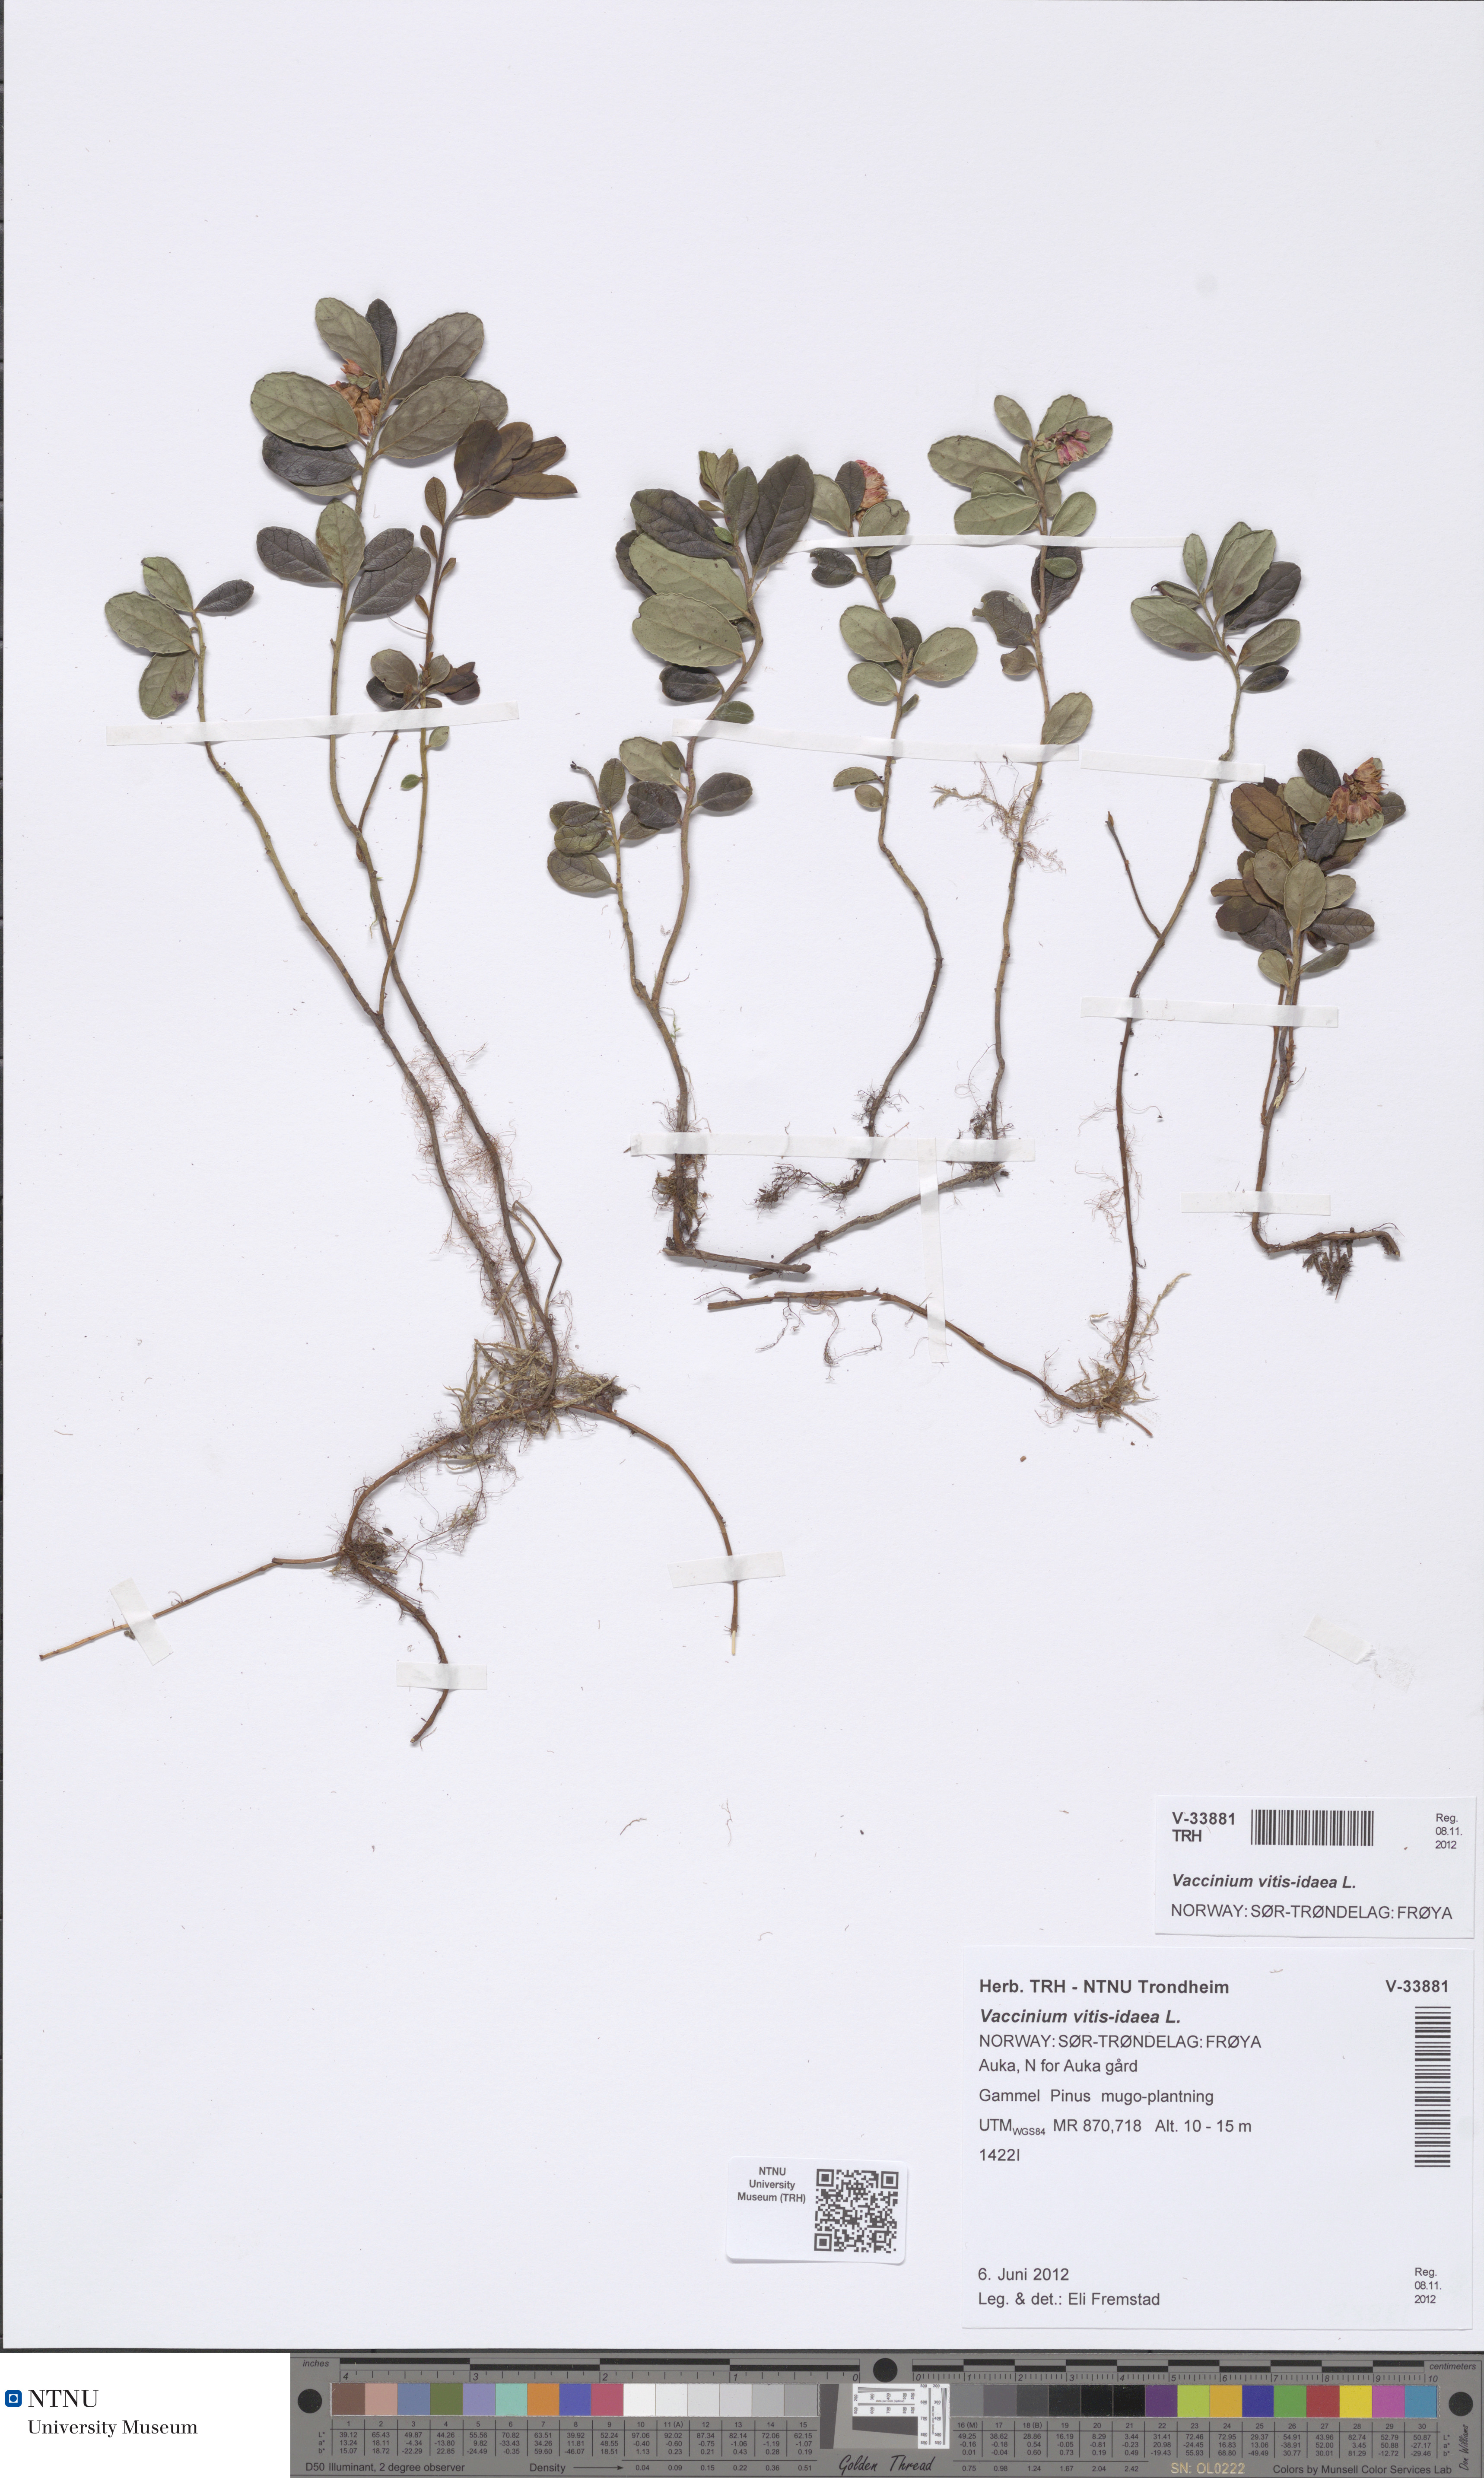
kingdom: Plantae
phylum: Tracheophyta
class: Magnoliopsida
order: Ericales
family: Ericaceae
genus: Vaccinium
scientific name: Vaccinium vitis-idaea
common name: Cowberry
